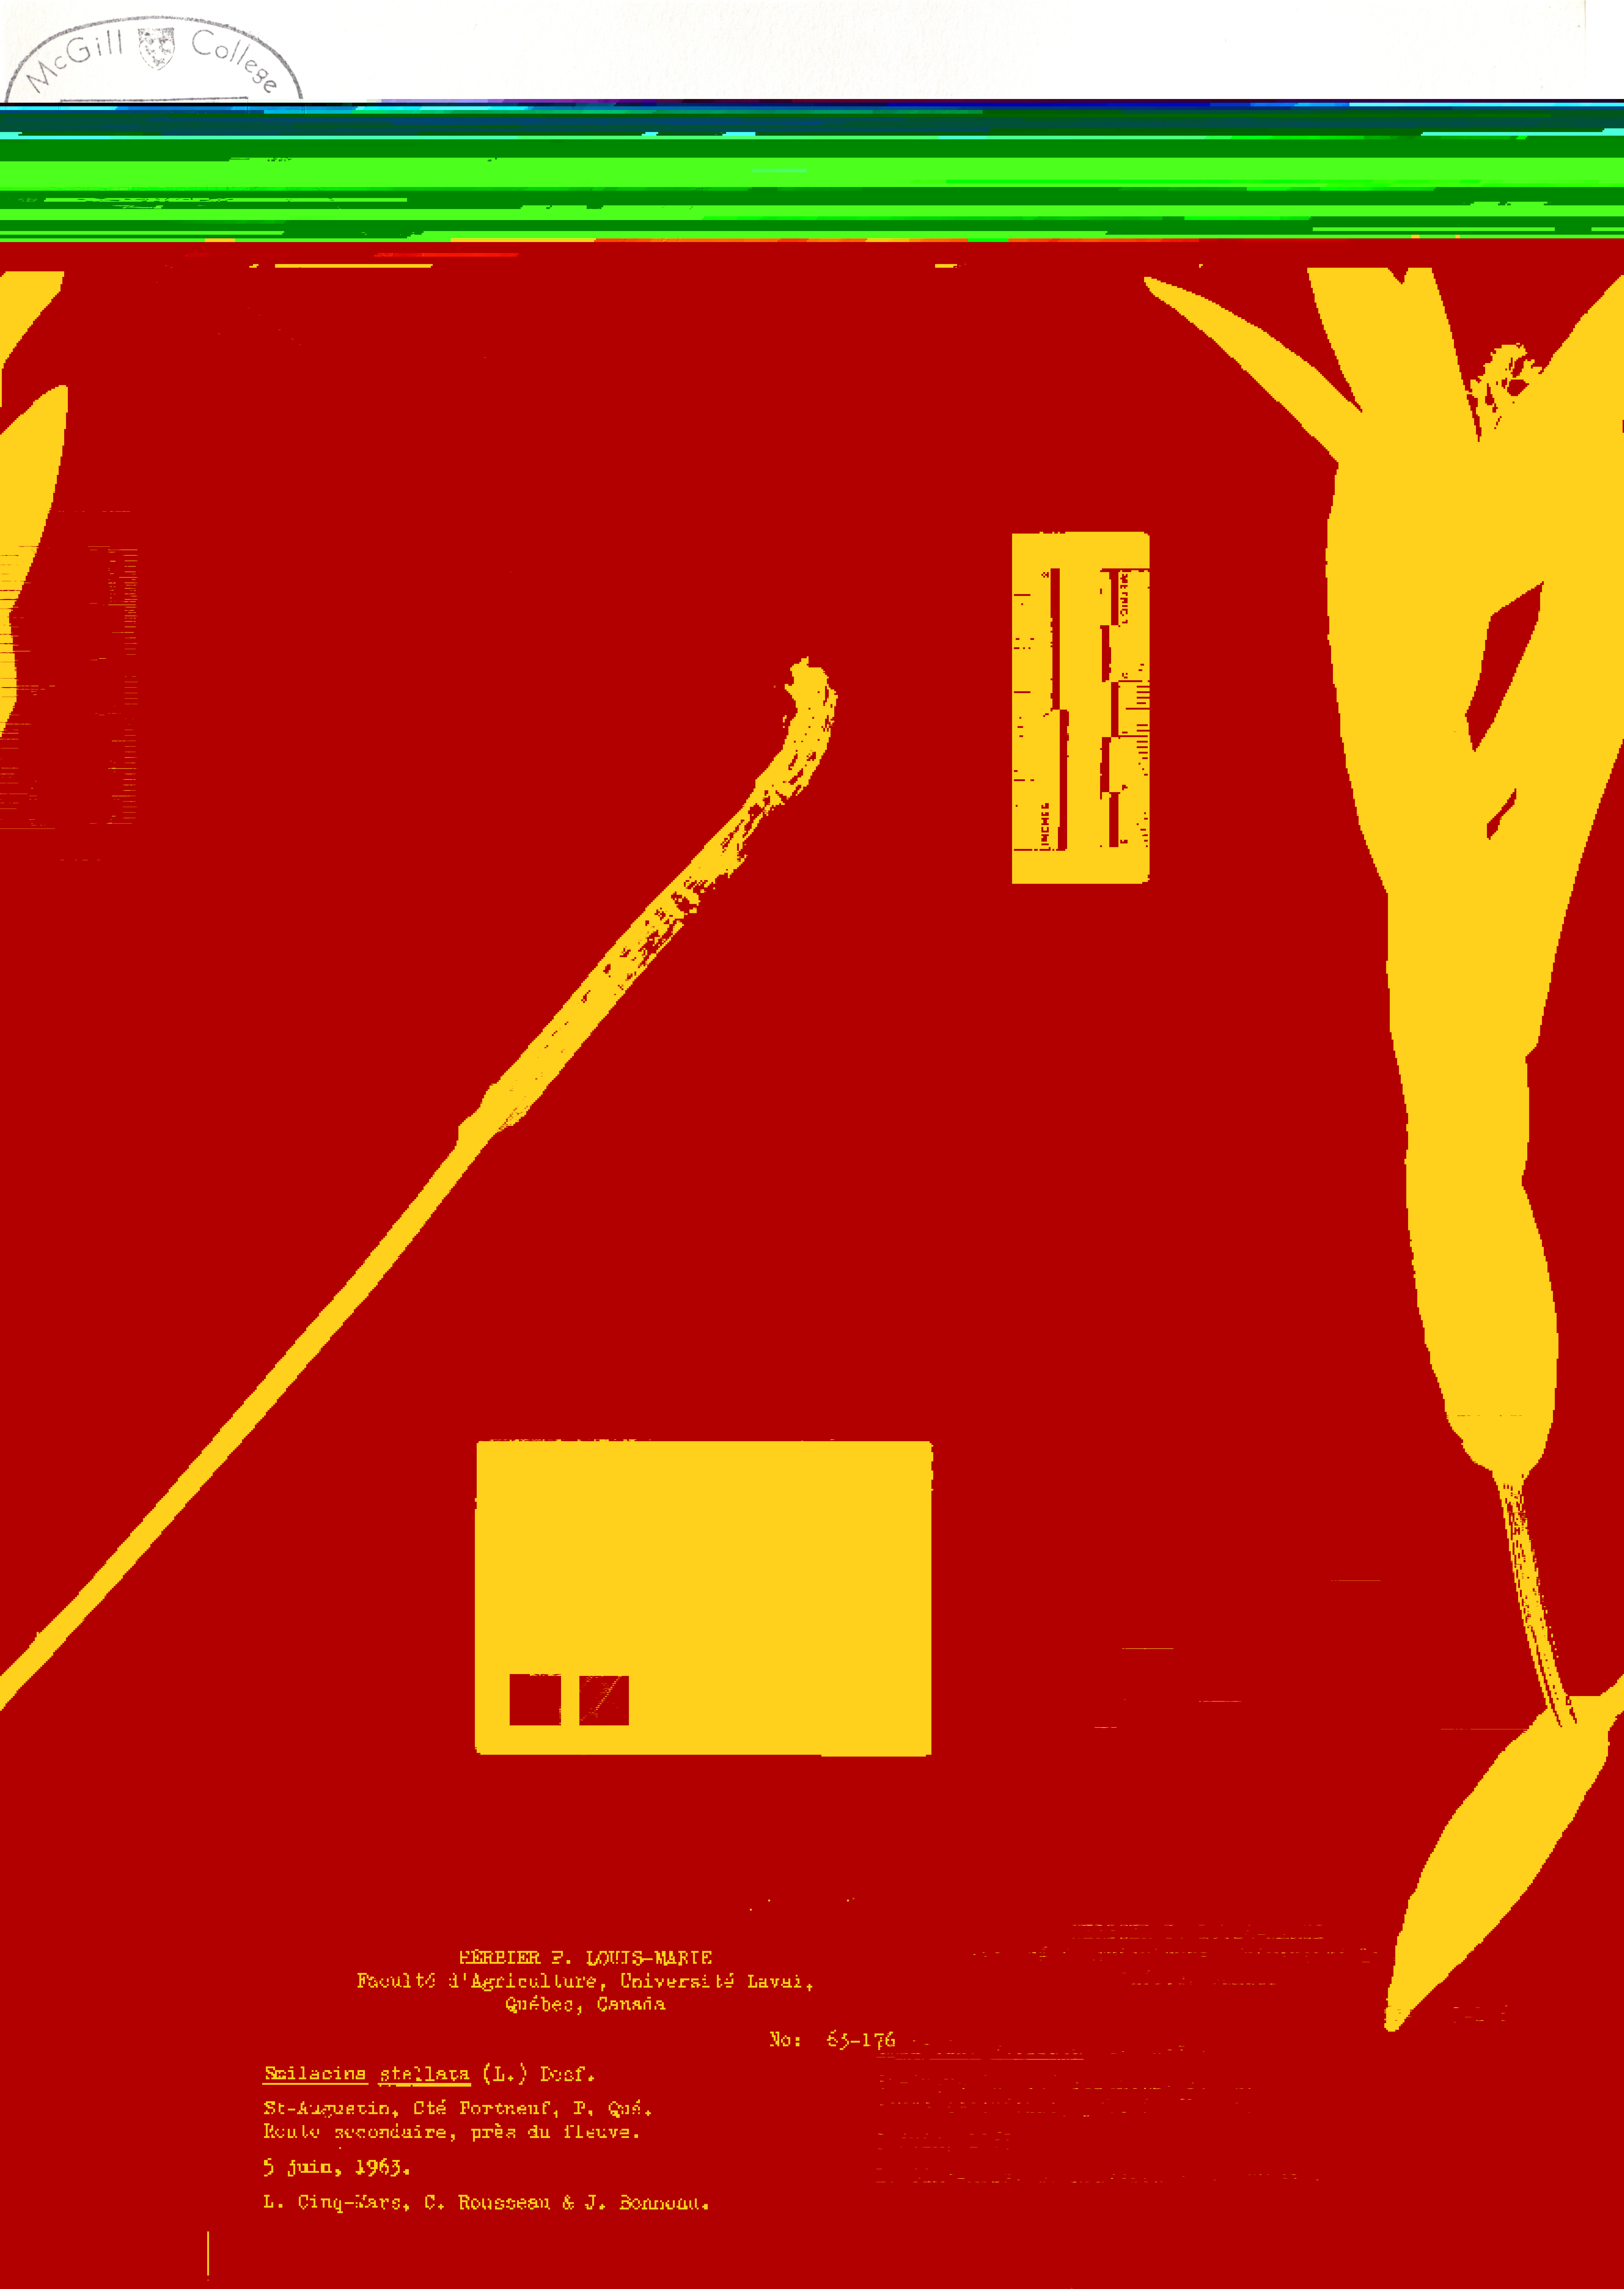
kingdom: Plantae
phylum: Tracheophyta
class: Liliopsida
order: Asparagales
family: Asparagaceae
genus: Maianthemum
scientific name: Maianthemum stellatum
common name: Little false solomon's seal
